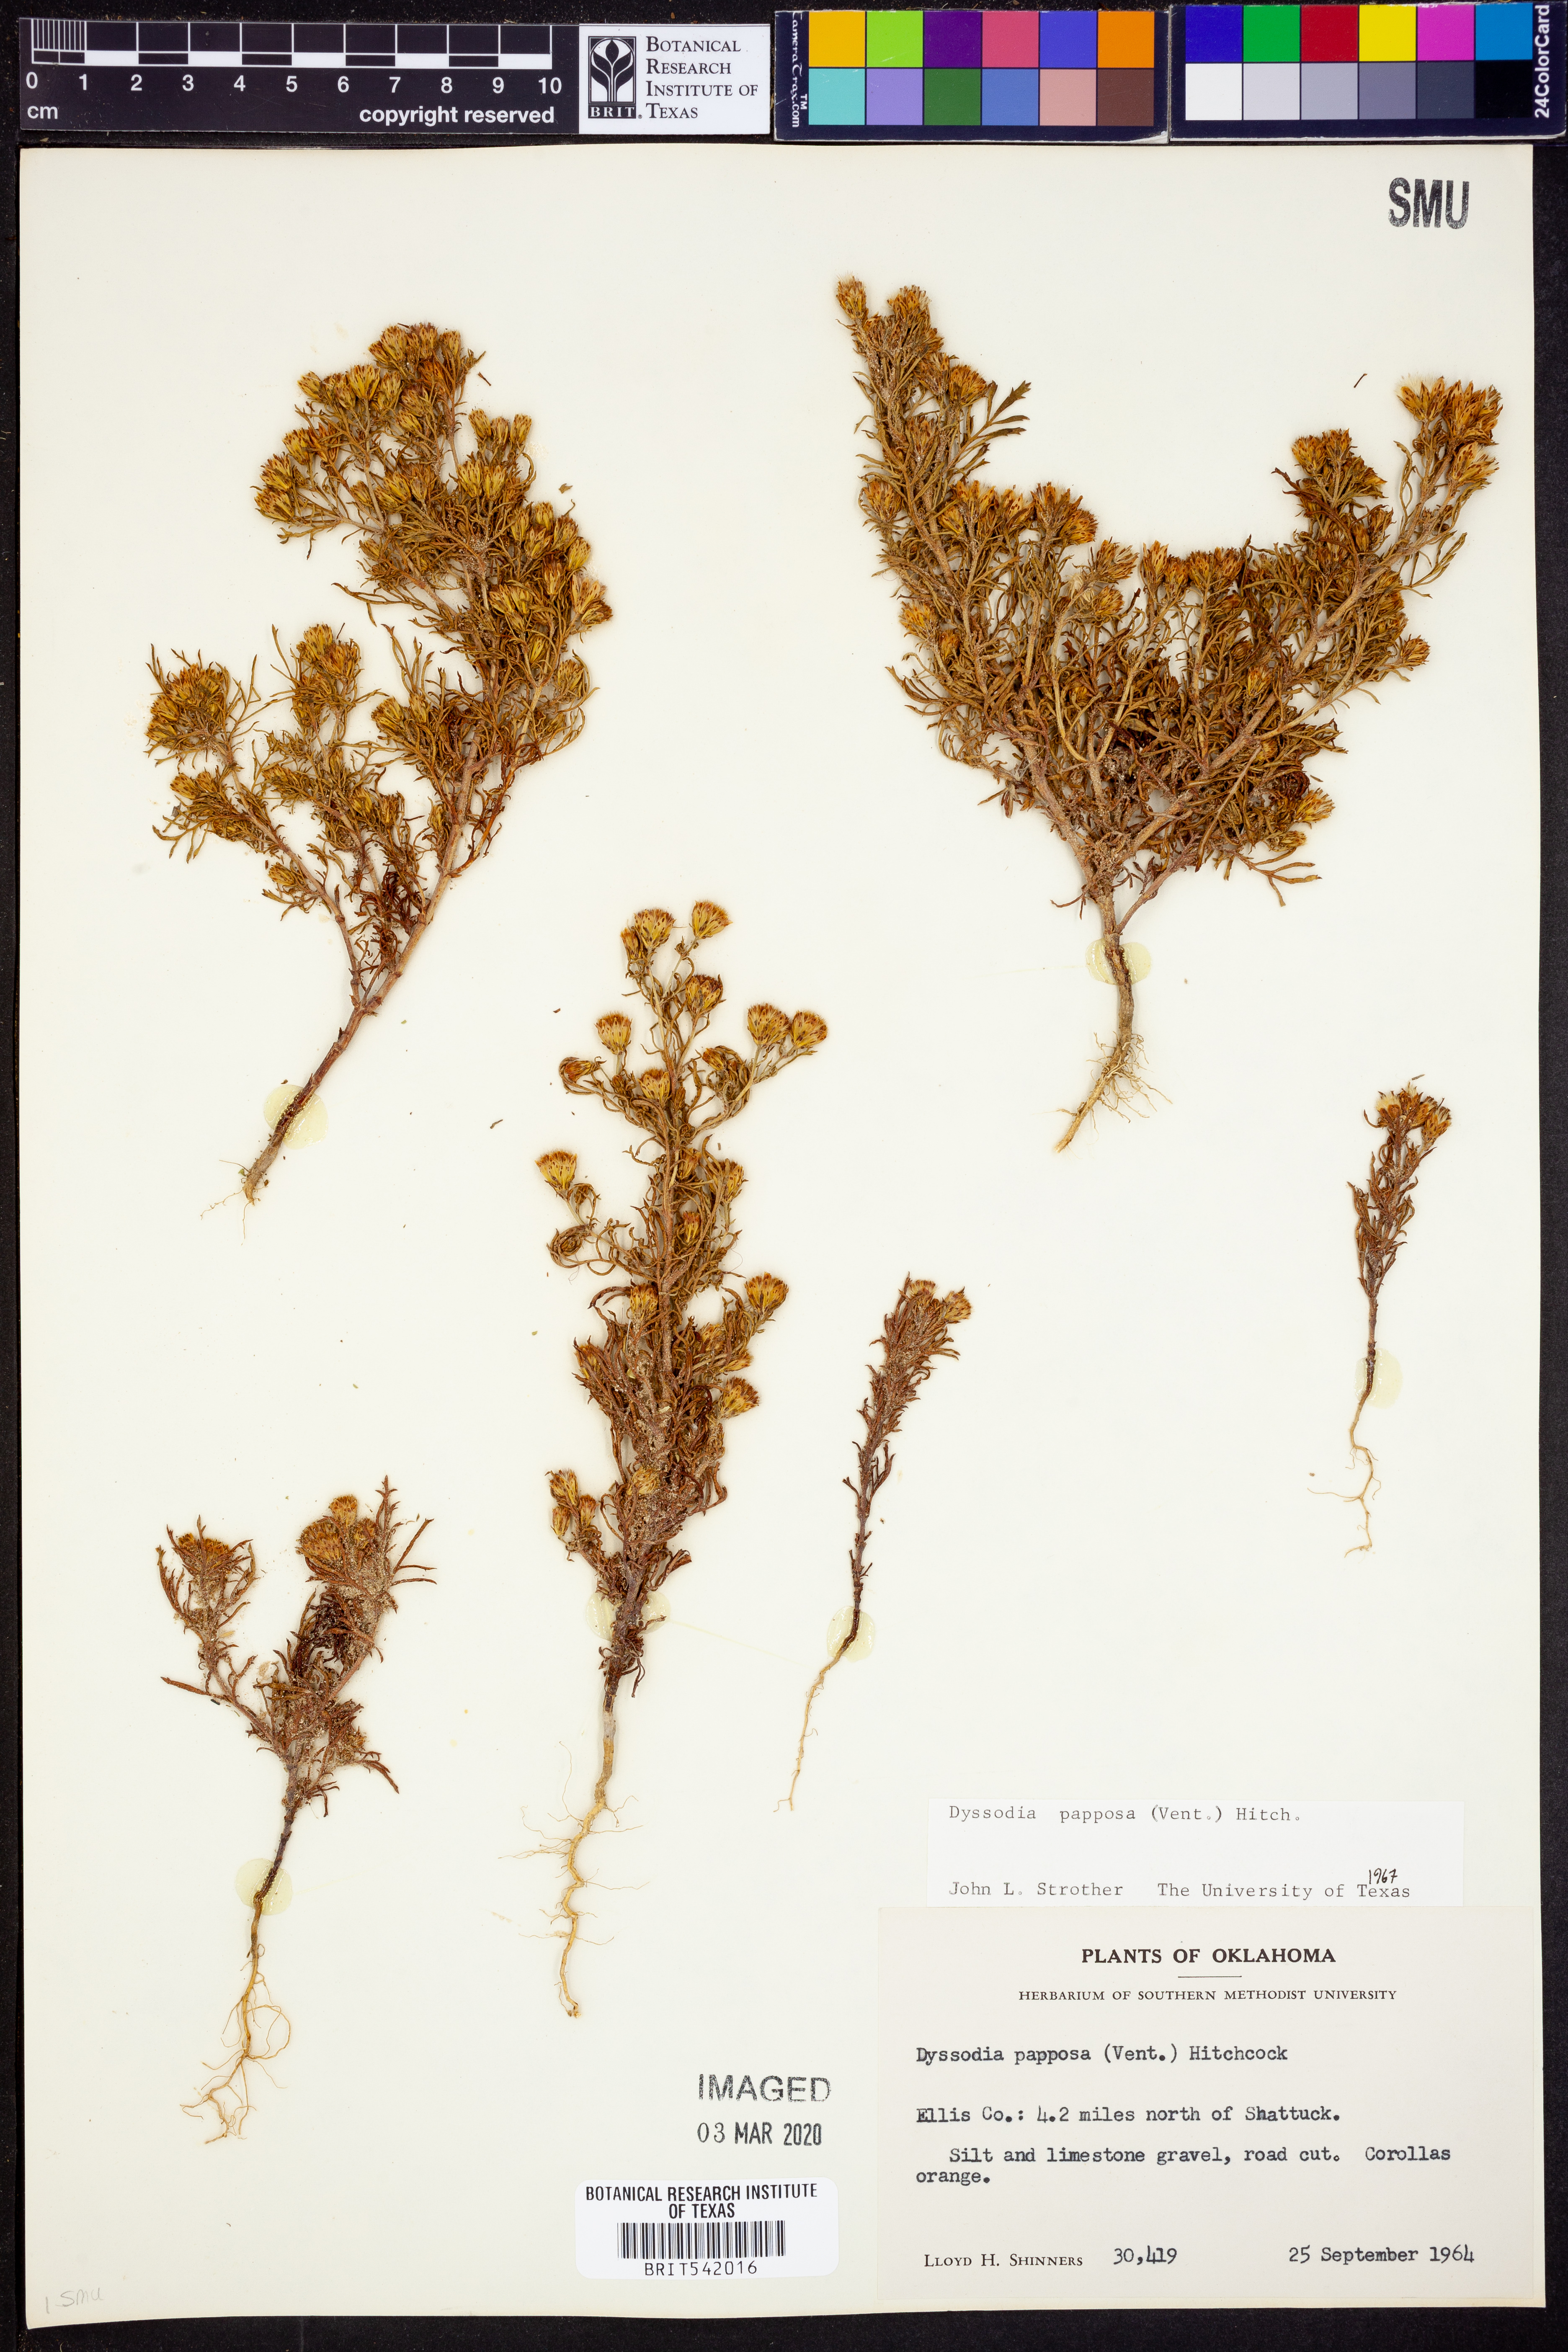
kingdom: Plantae
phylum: Tracheophyta
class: Magnoliopsida
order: Asterales
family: Asteraceae
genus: Dyssodia
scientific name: Dyssodia papposa
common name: Dogweed
